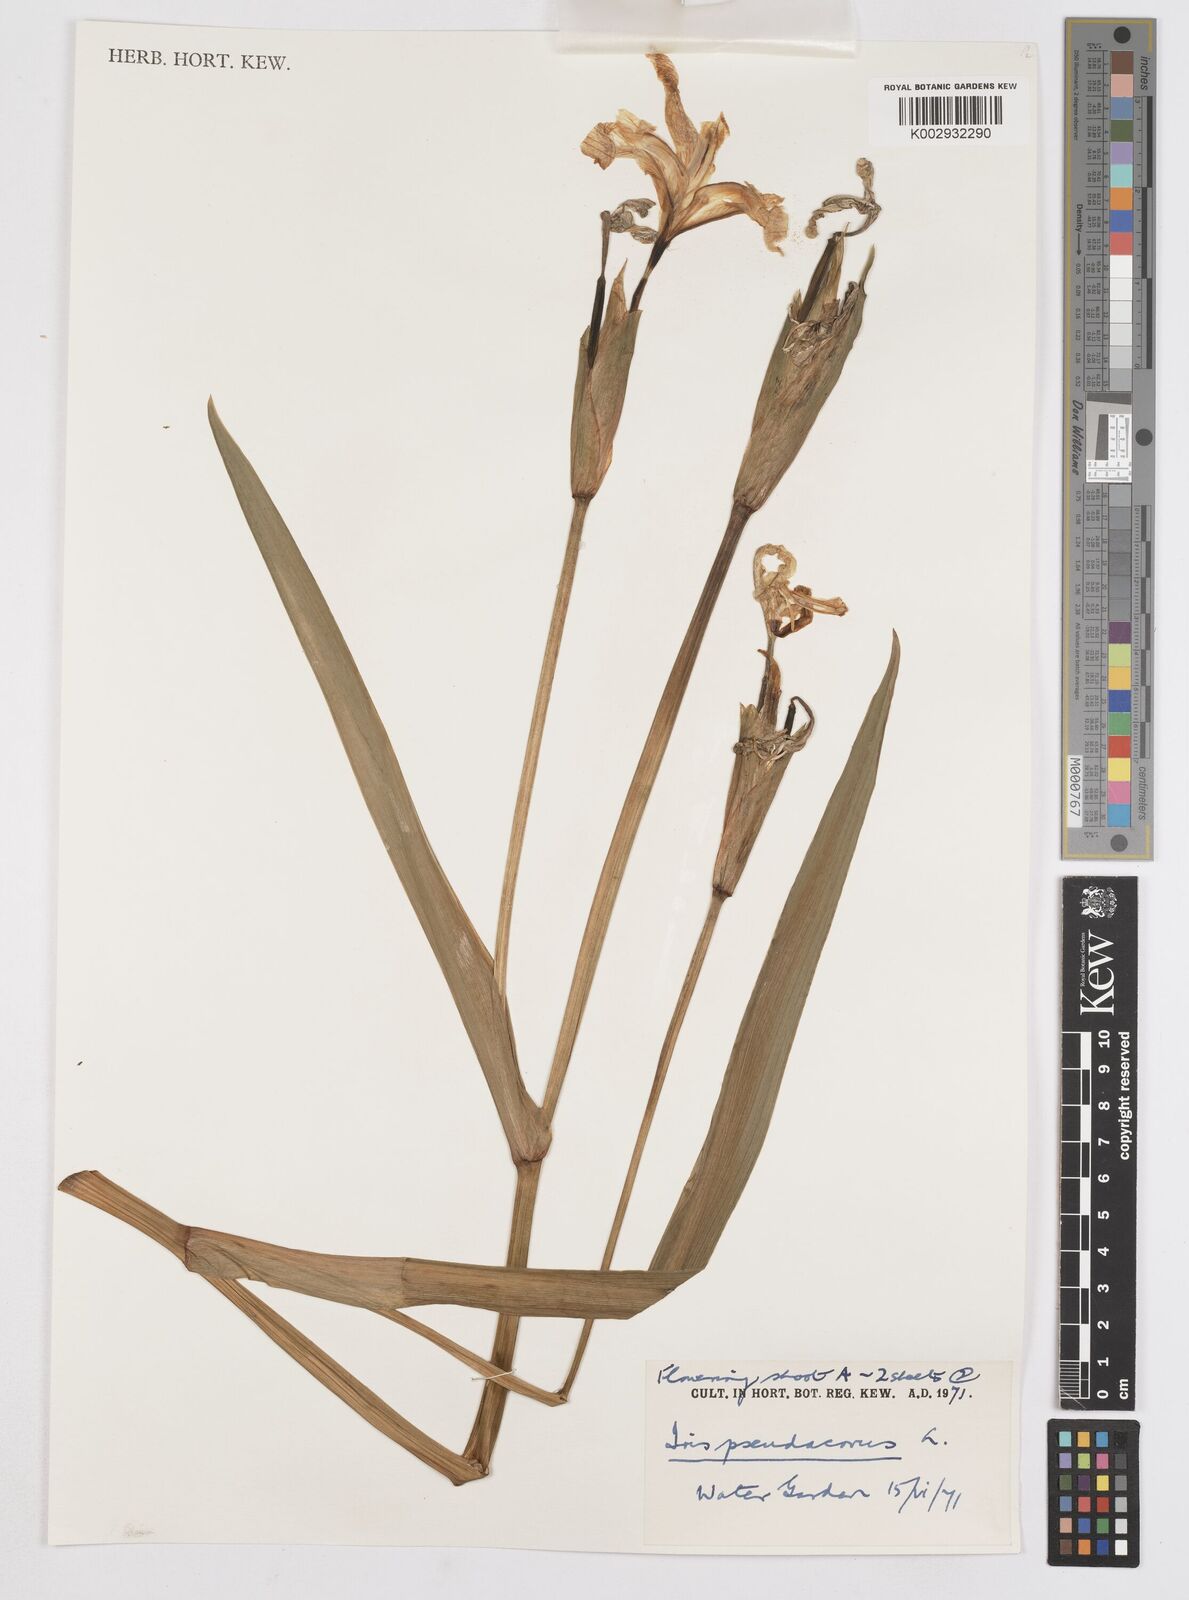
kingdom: Plantae
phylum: Tracheophyta
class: Liliopsida
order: Asparagales
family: Iridaceae
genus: Iris
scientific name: Iris pseudacorus
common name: Yellow flag
